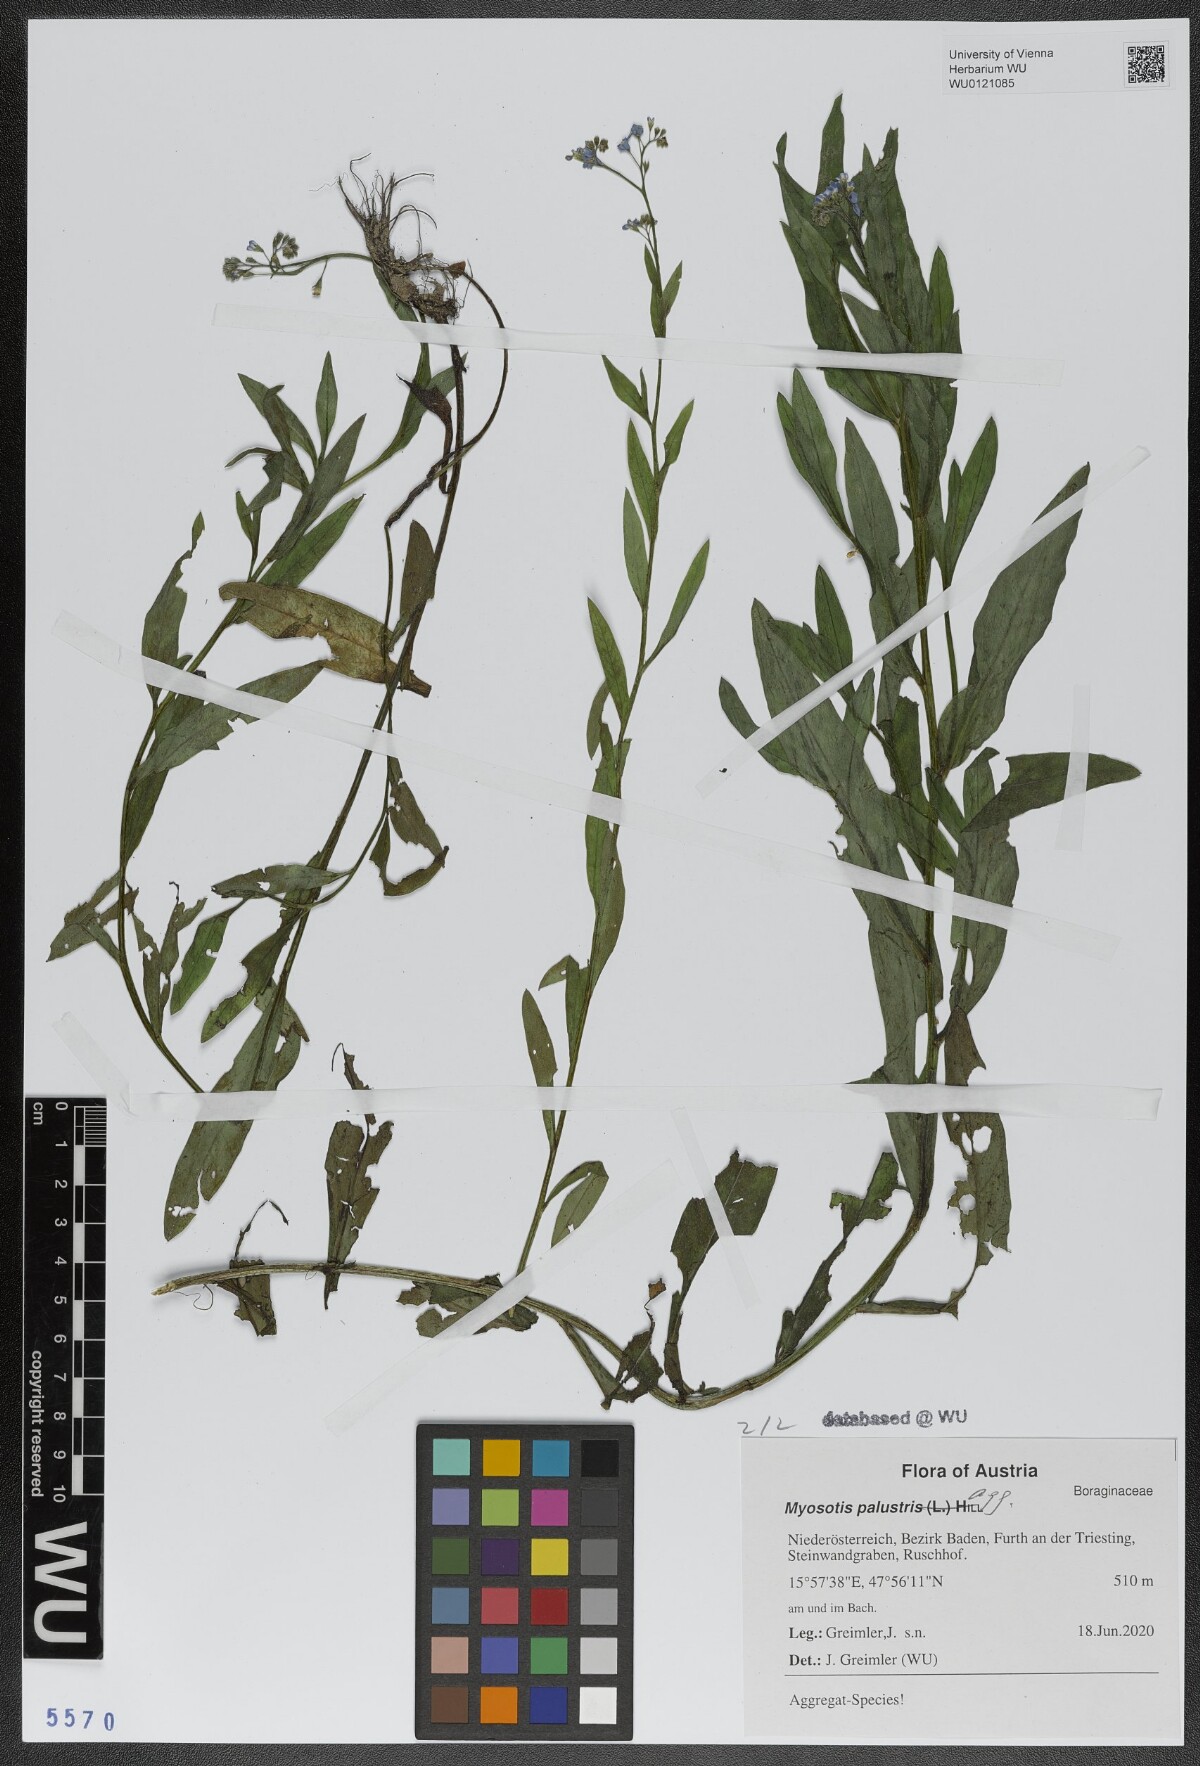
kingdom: Plantae
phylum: Tracheophyta
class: Magnoliopsida
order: Boraginales
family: Boraginaceae
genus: Myosotis
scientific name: Myosotis scorpioides
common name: Water forget-me-not
